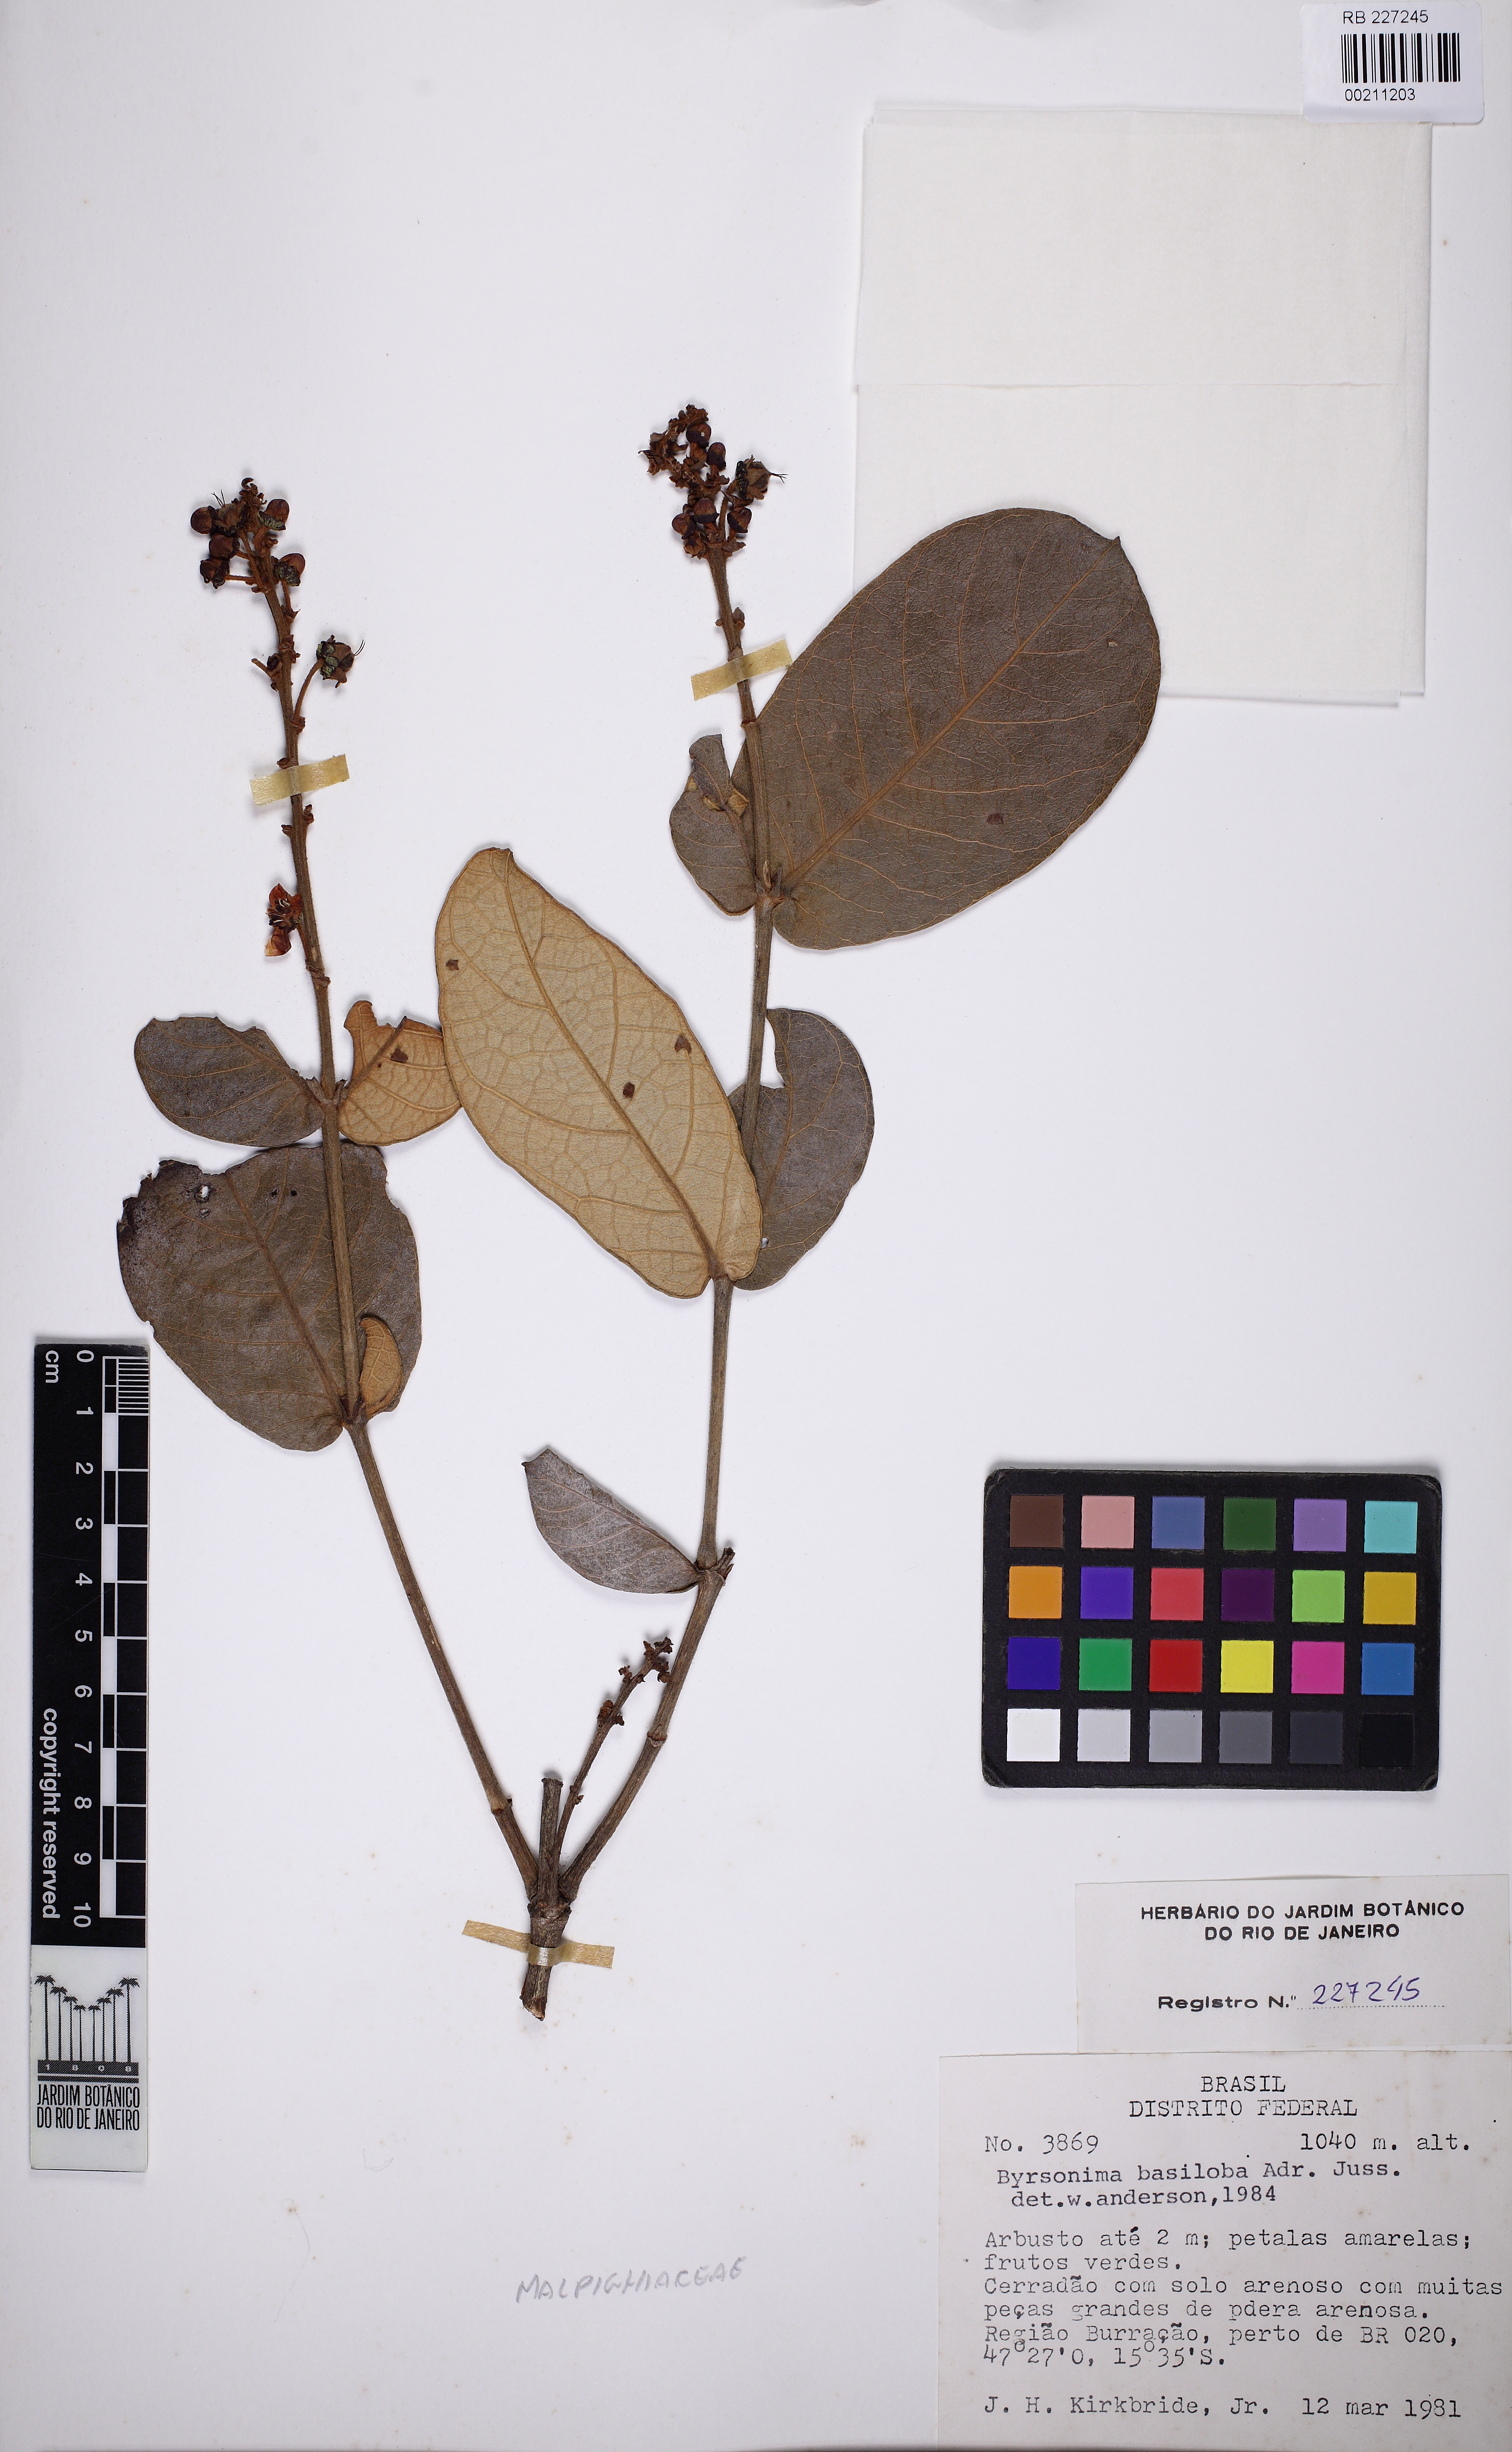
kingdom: Plantae
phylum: Tracheophyta
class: Magnoliopsida
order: Malpighiales
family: Malpighiaceae
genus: Byrsonima
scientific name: Byrsonima basiloba
